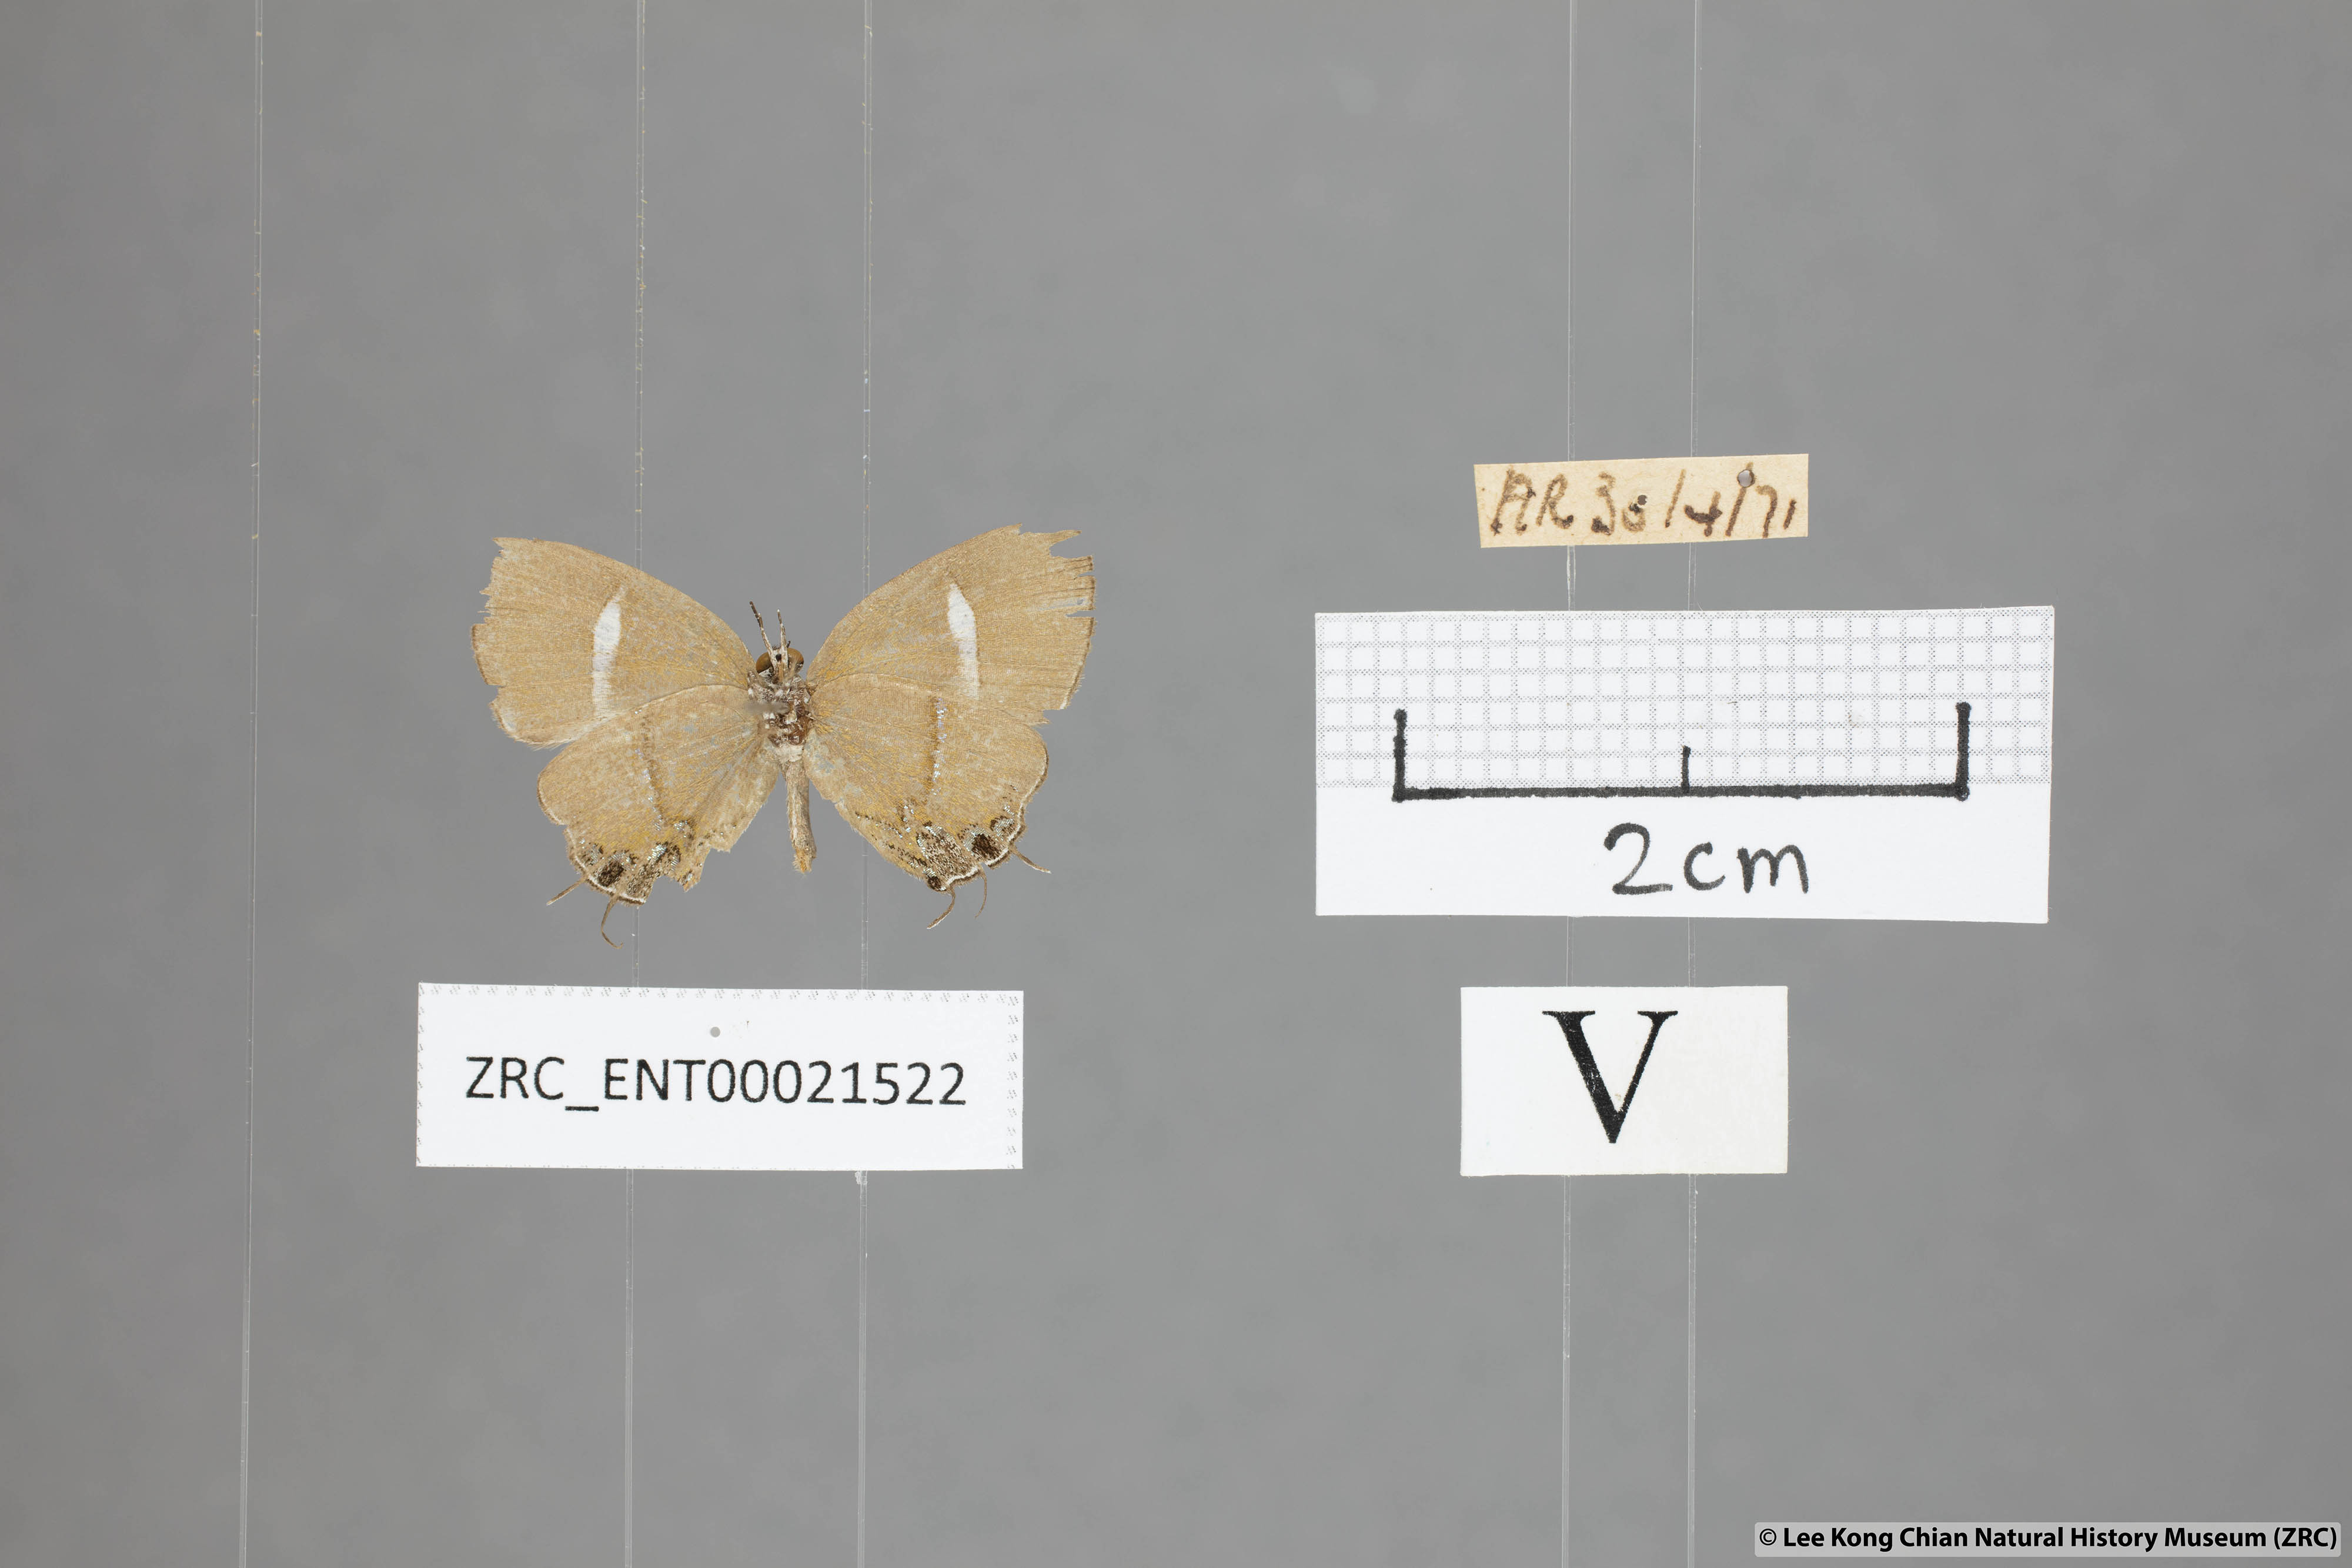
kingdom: Animalia
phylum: Arthropoda
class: Insecta
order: Lepidoptera
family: Lycaenidae
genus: Horaga
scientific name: Horaga amethystus
